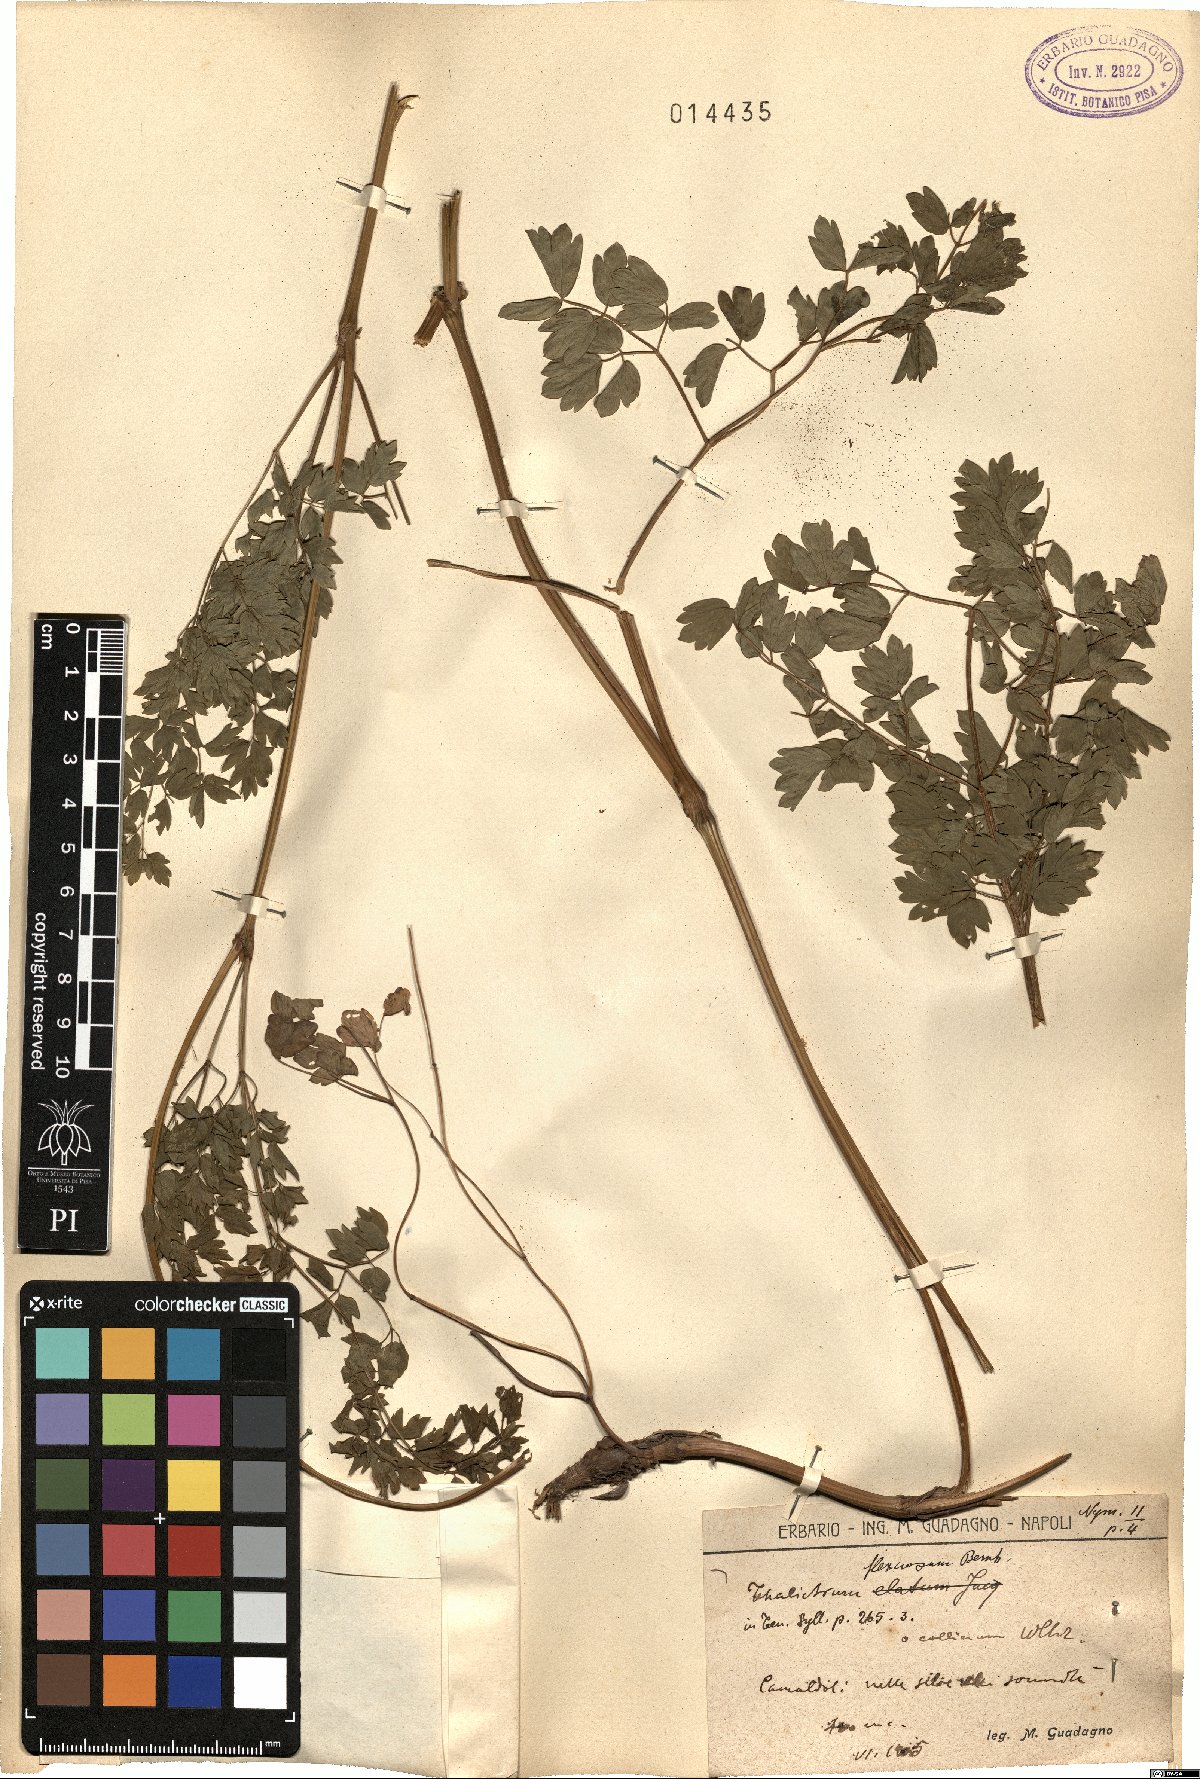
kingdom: Plantae
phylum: Tracheophyta
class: Magnoliopsida
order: Ranunculales
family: Ranunculaceae
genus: Thalictrum
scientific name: Thalictrum minus
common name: Lesser meadow-rue
